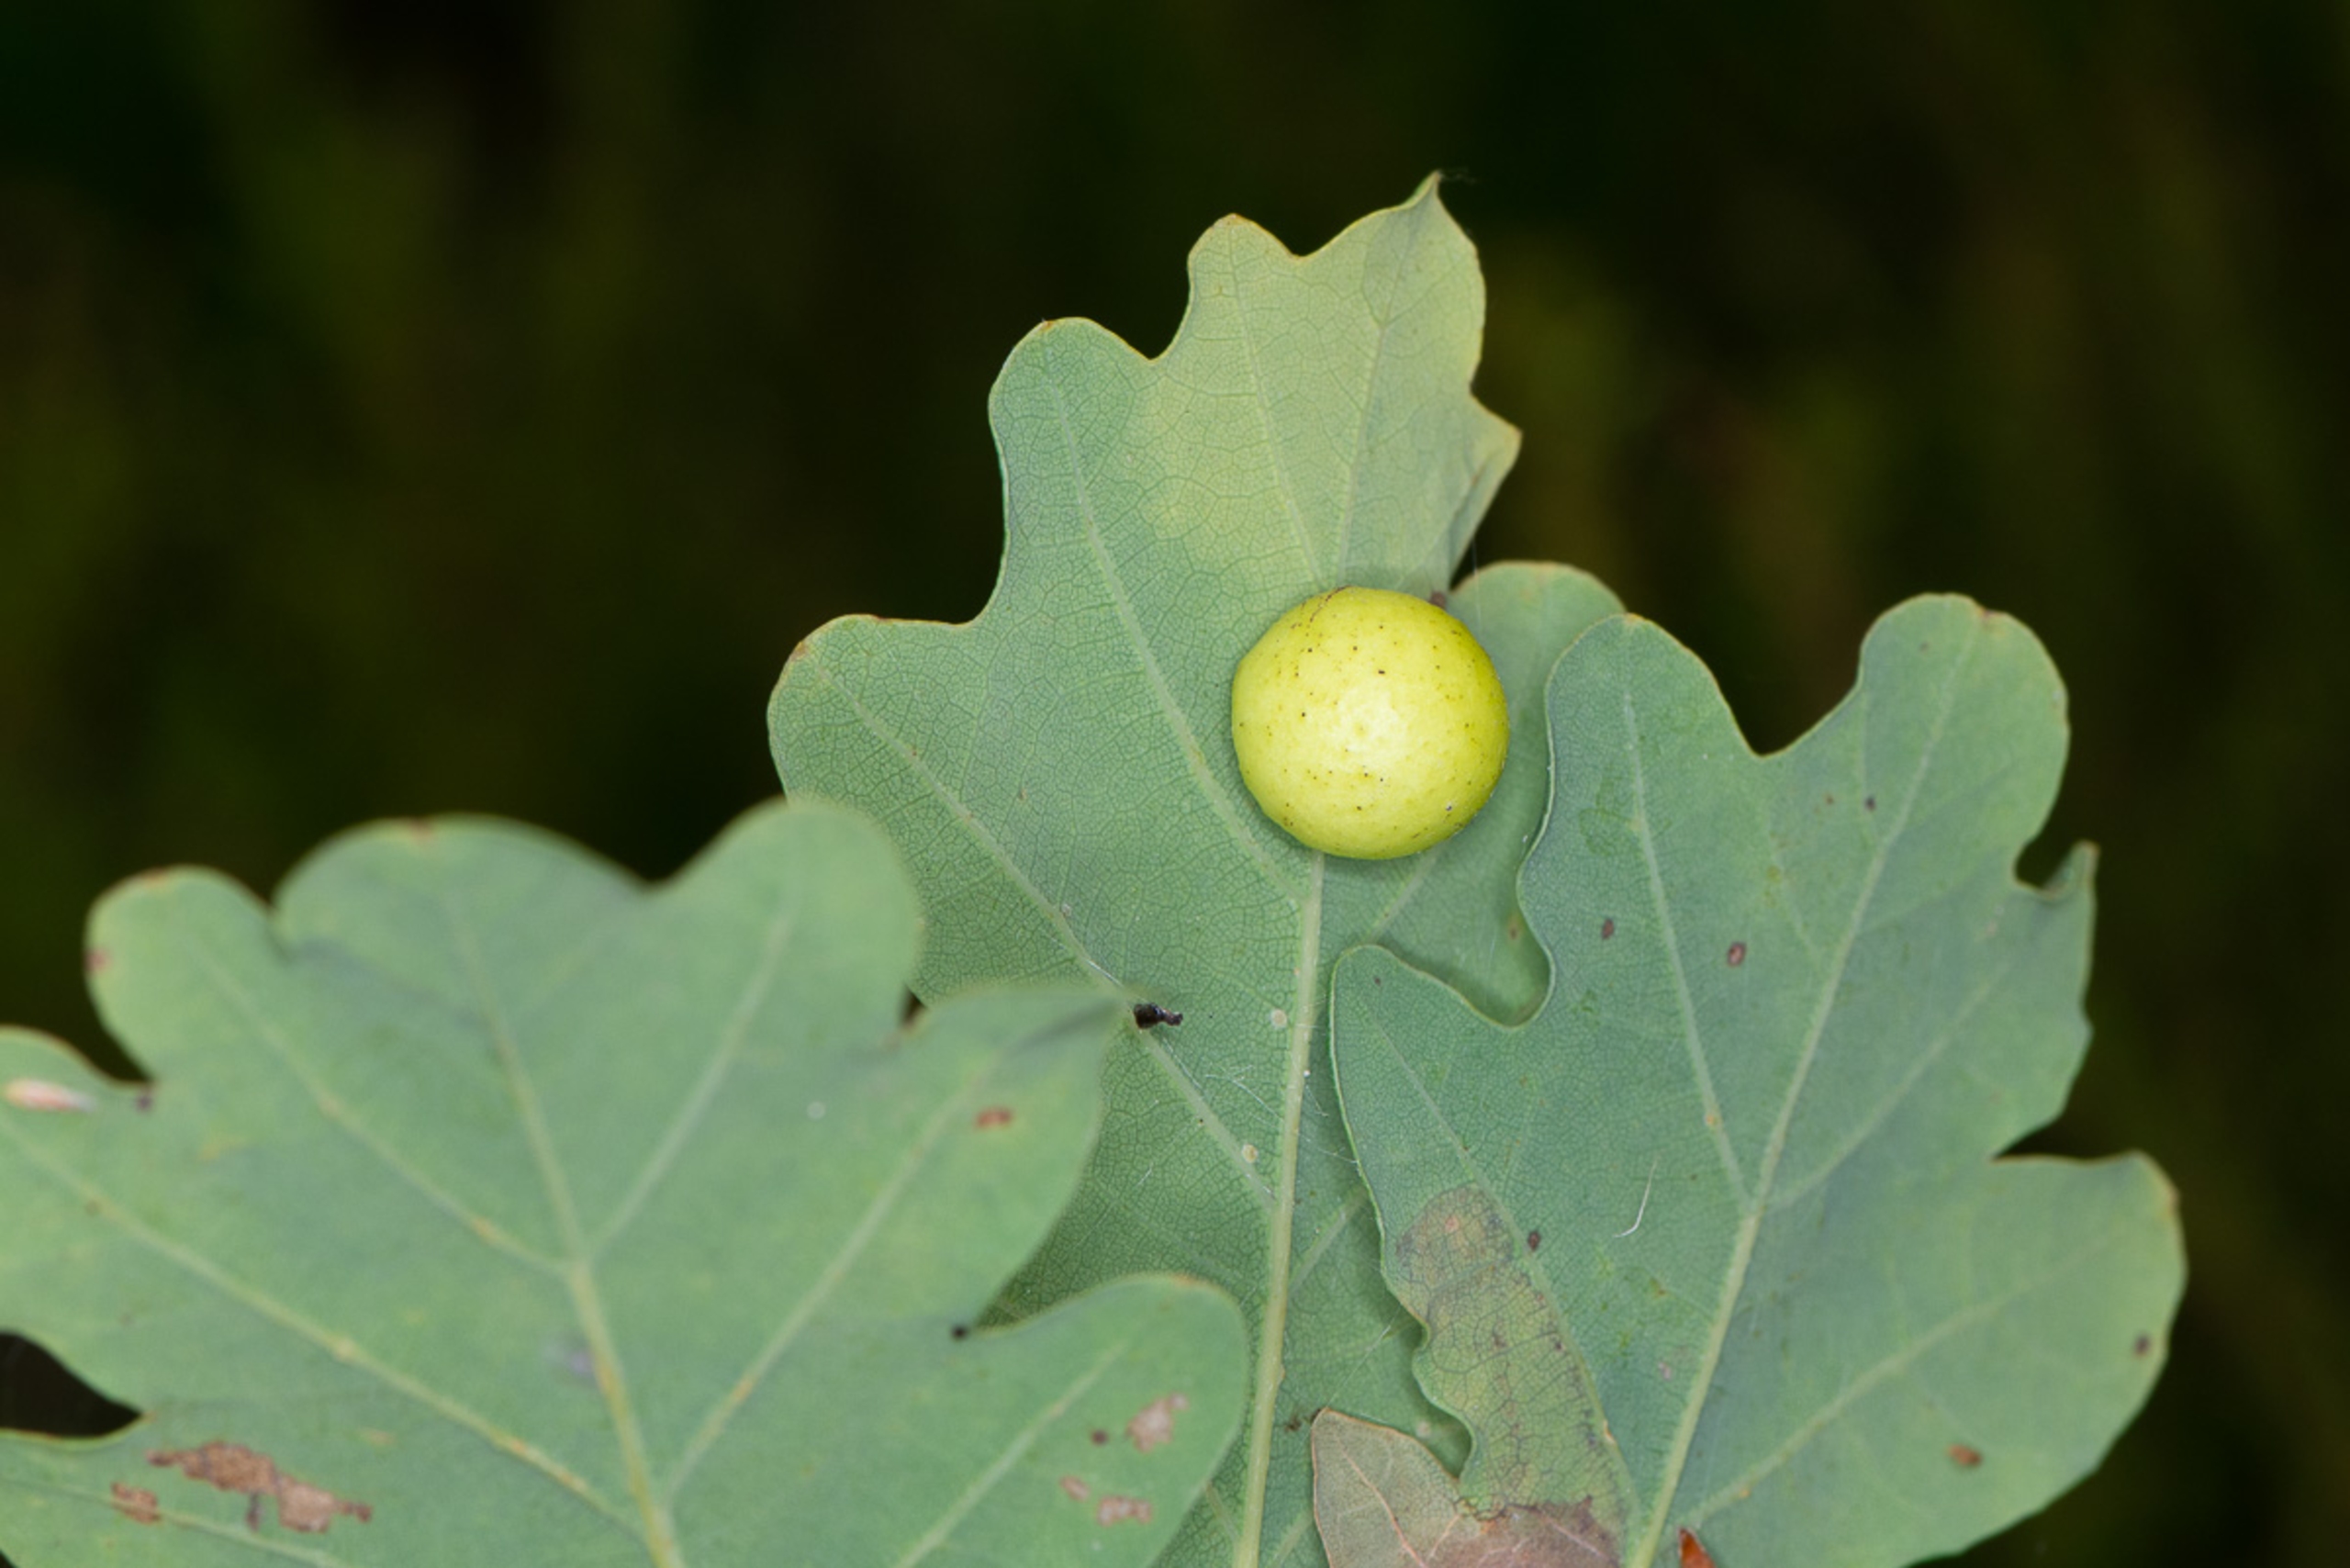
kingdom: Animalia
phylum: Arthropoda
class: Insecta
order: Hymenoptera
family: Cynipidae
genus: Cynips
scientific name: Cynips quercusfolii
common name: Stor galæblehveps
